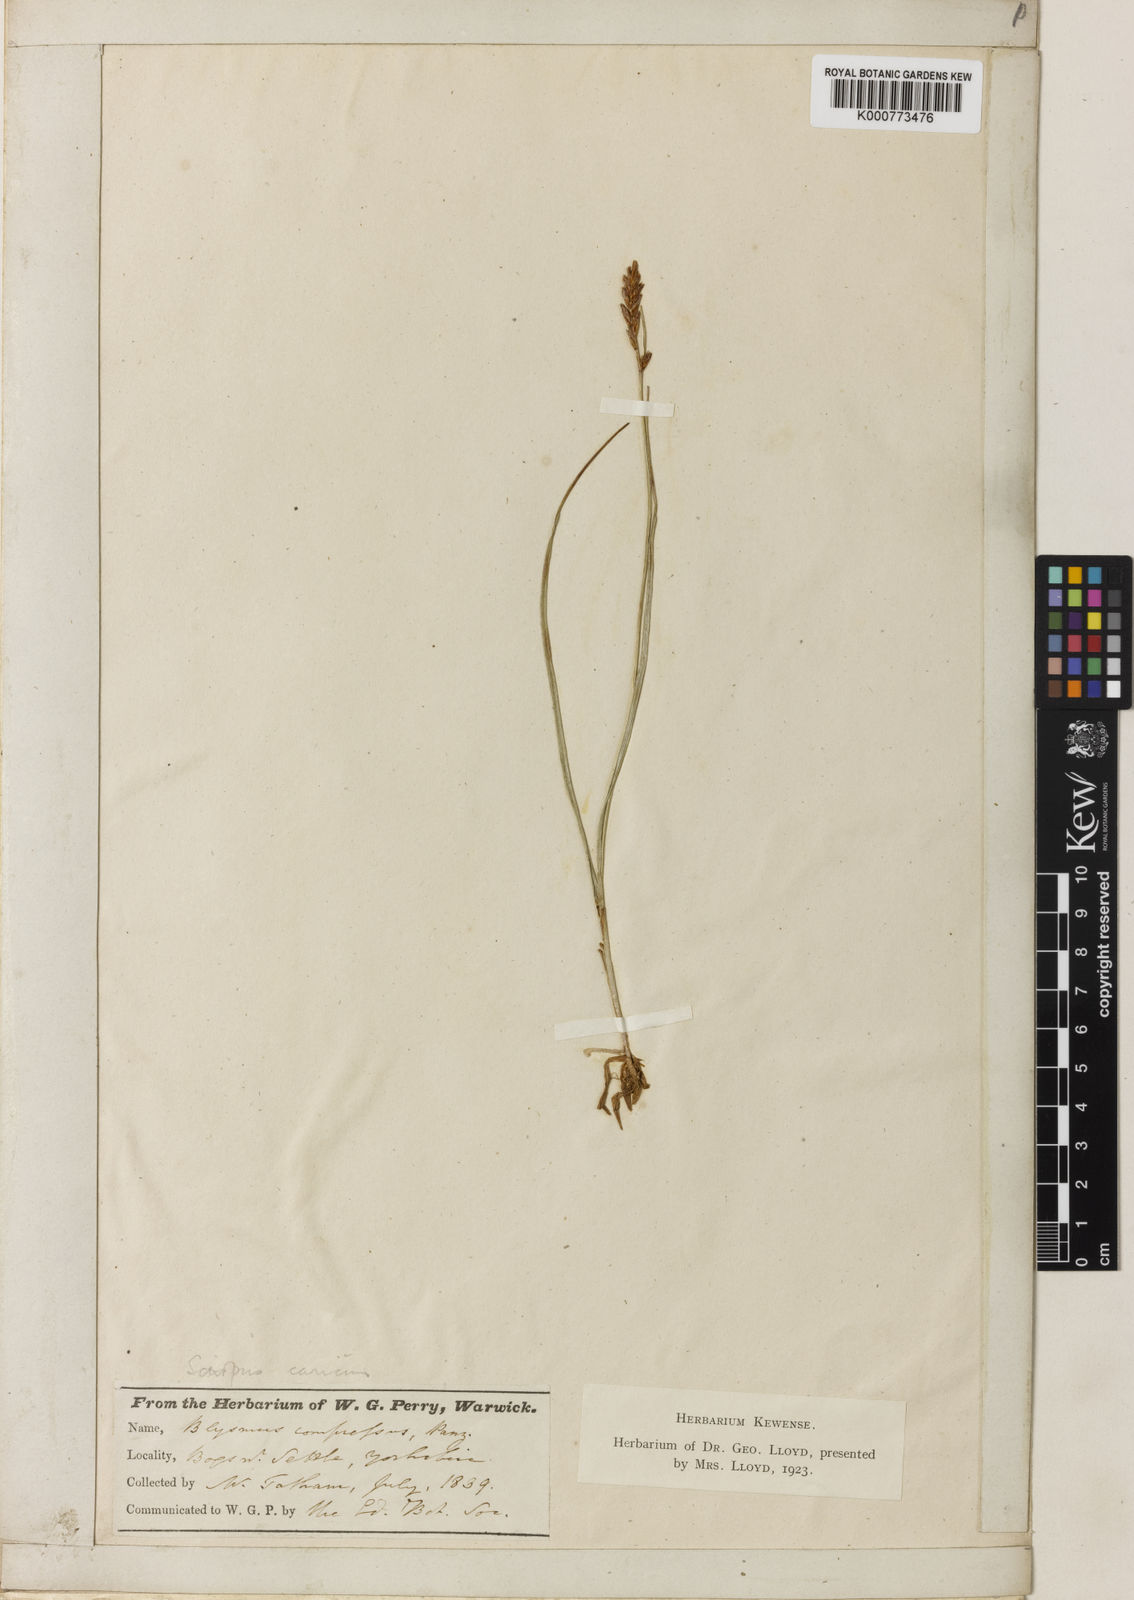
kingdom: Plantae
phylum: Tracheophyta
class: Liliopsida
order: Poales
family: Cyperaceae
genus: Blysmus
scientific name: Blysmus compressus
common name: Flat-sedge
